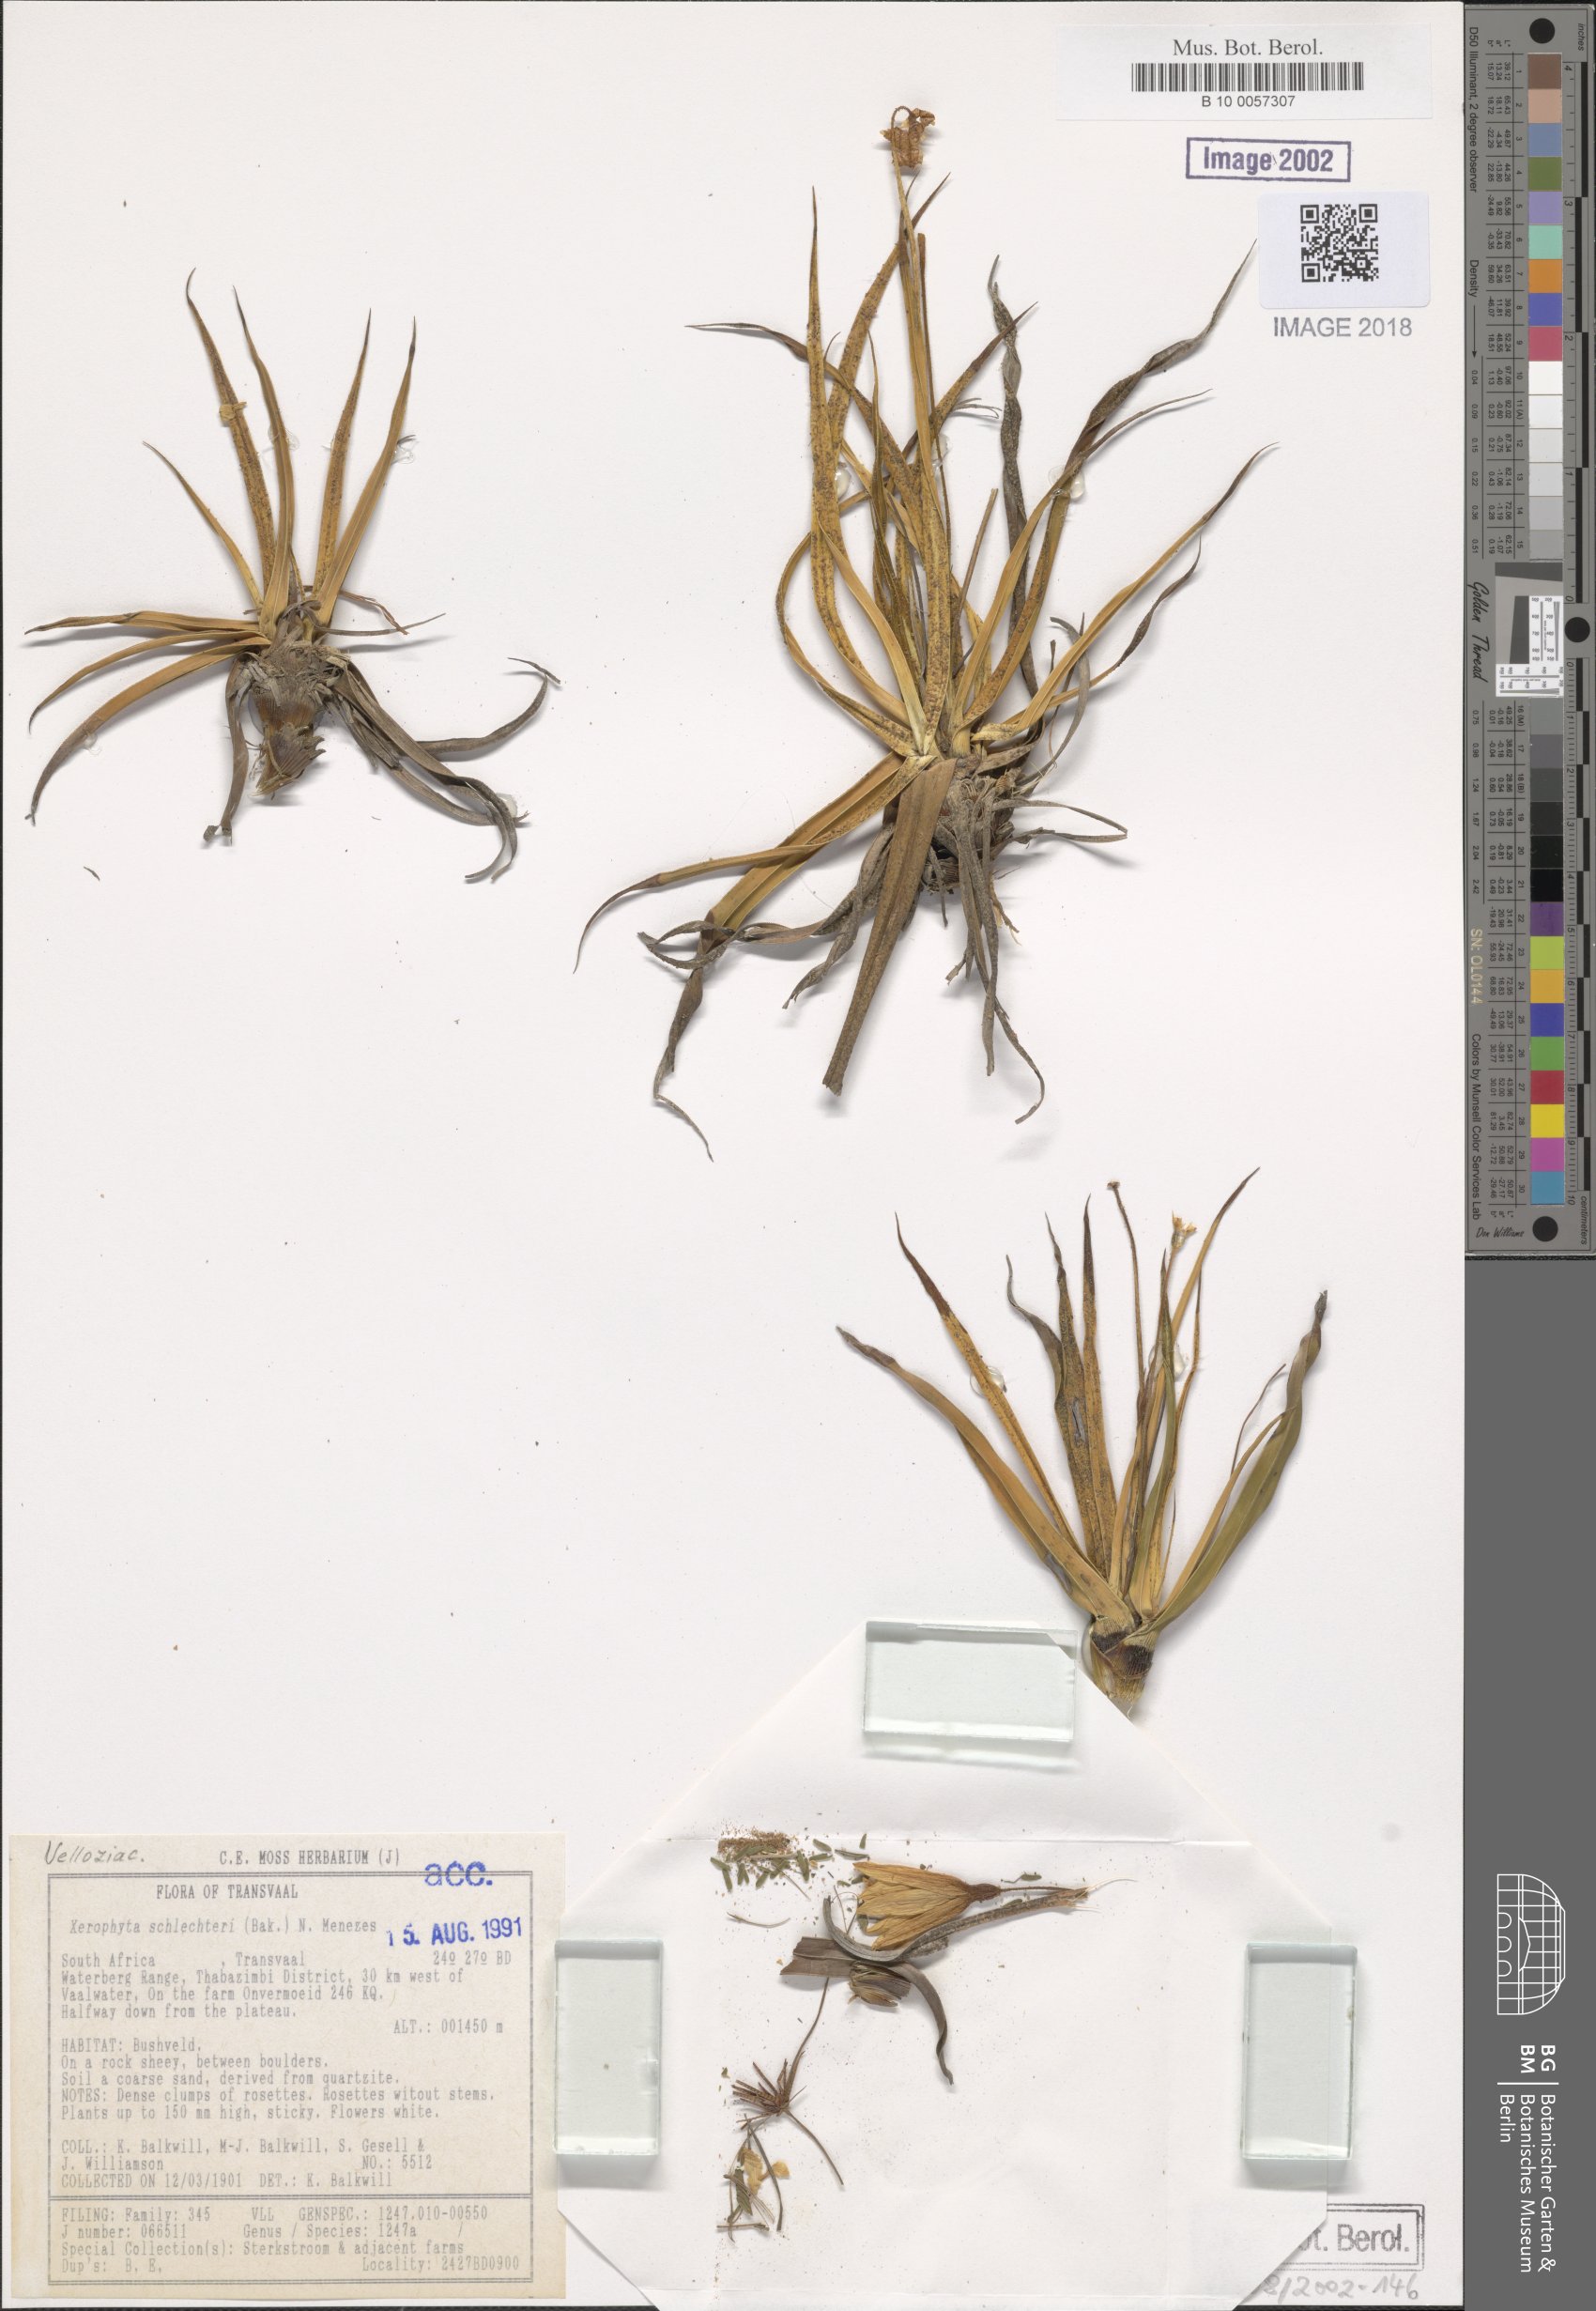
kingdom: Plantae
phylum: Tracheophyta
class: Liliopsida
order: Pandanales
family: Velloziaceae
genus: Xerophyta
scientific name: Xerophyta schlechteri
